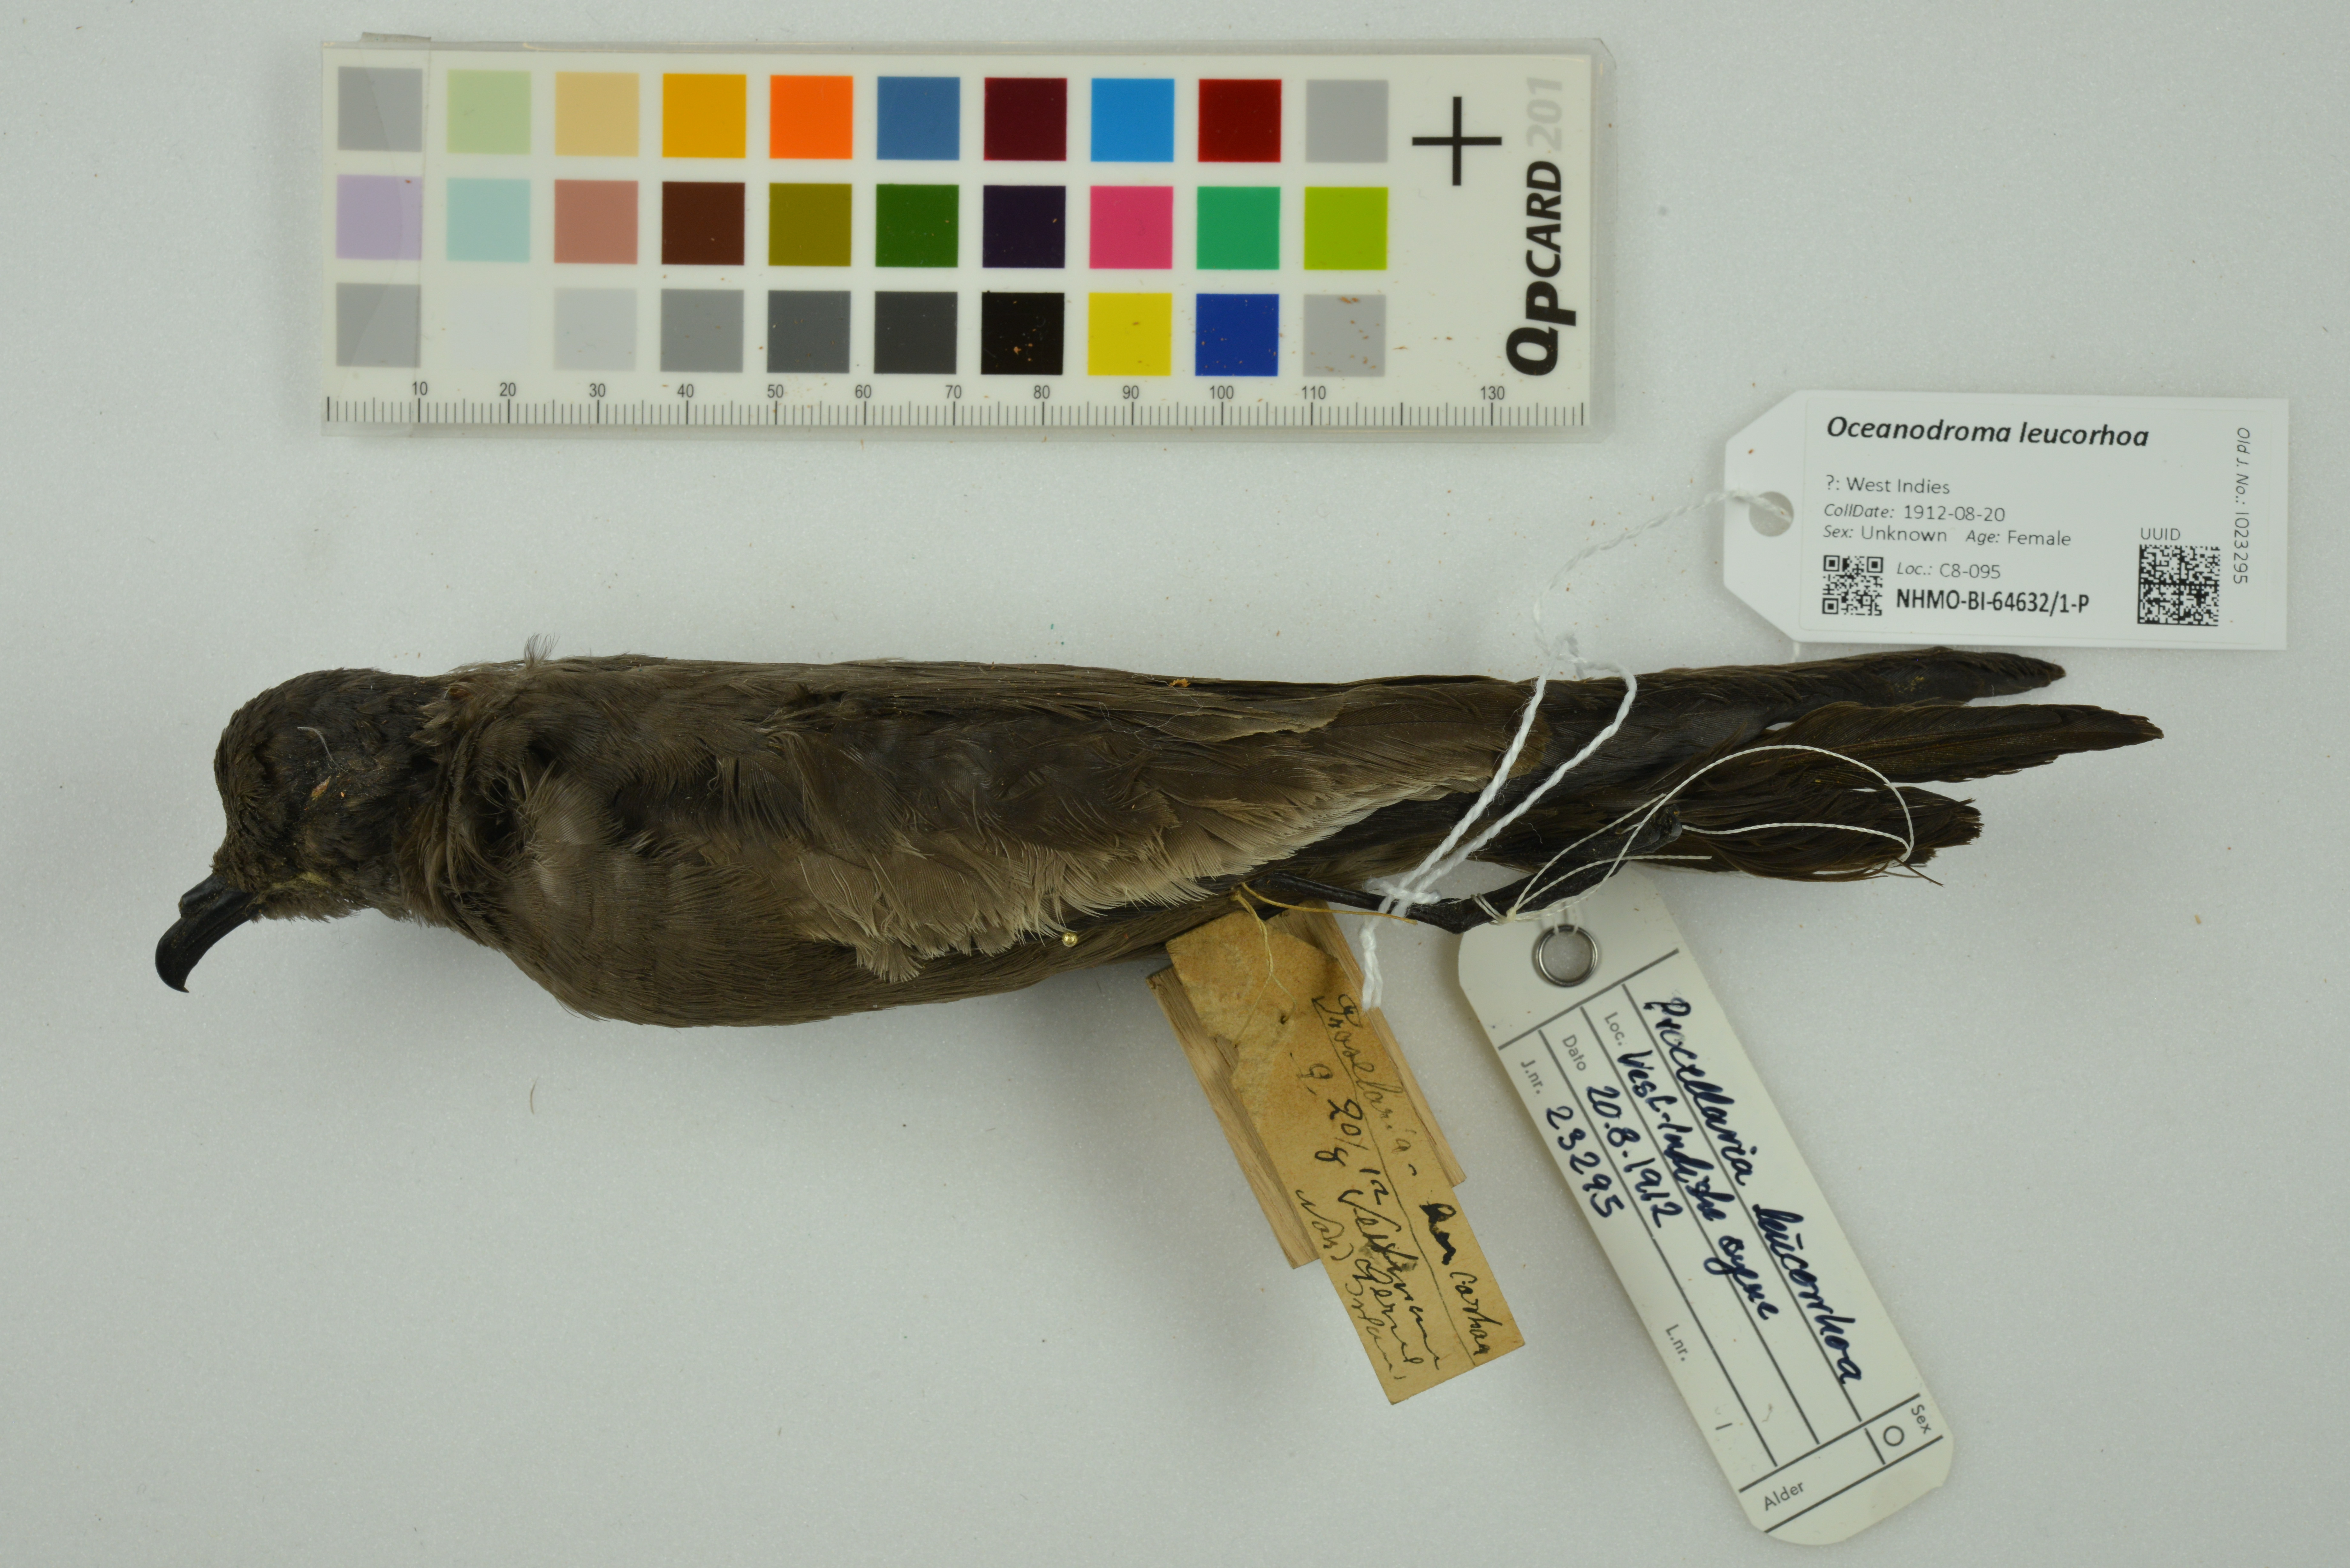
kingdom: Animalia
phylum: Chordata
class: Aves
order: Procellariiformes
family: Hydrobatidae
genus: Oceanodroma
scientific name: Oceanodroma leucorhoa
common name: Leach's storm-petrel
